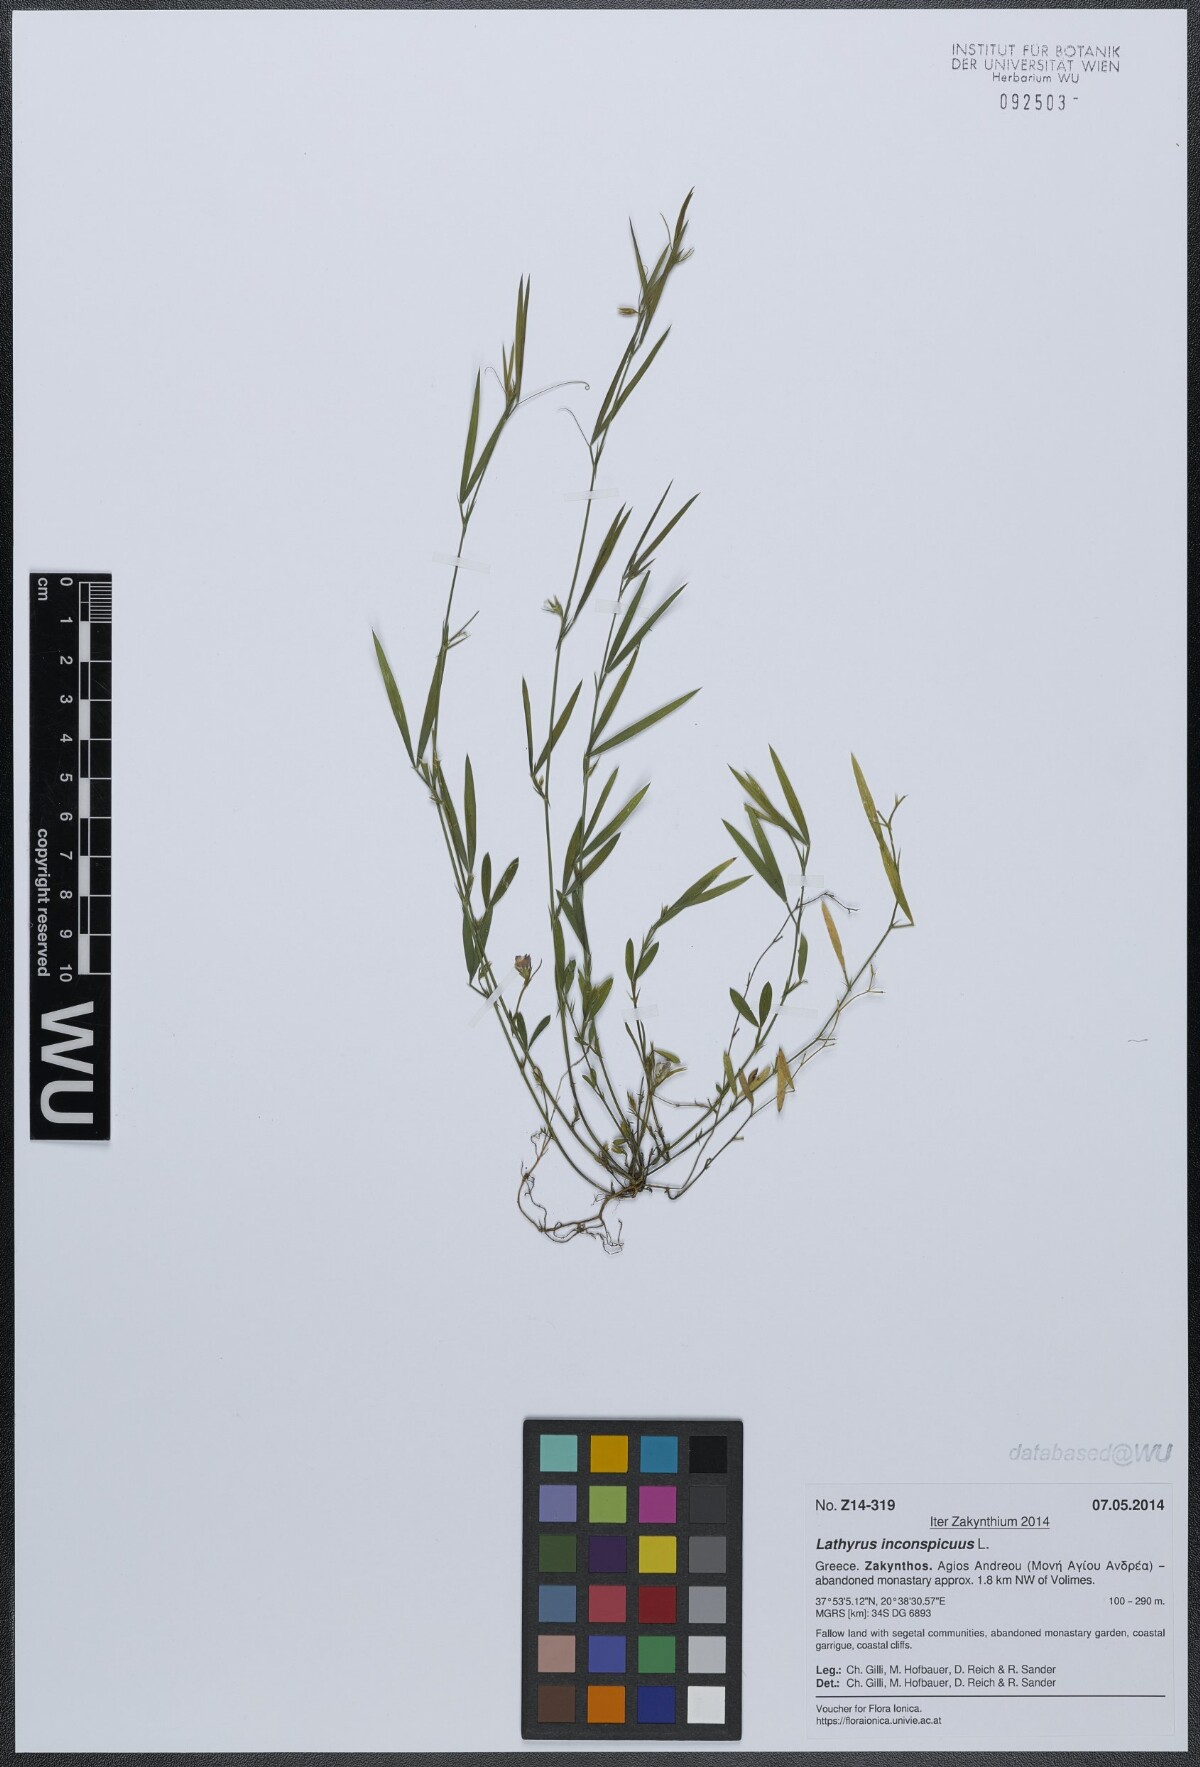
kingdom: Plantae
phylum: Tracheophyta
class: Magnoliopsida
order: Fabales
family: Fabaceae
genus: Lathyrus
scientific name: Lathyrus inconspicuus
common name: Inconspicuous pea
